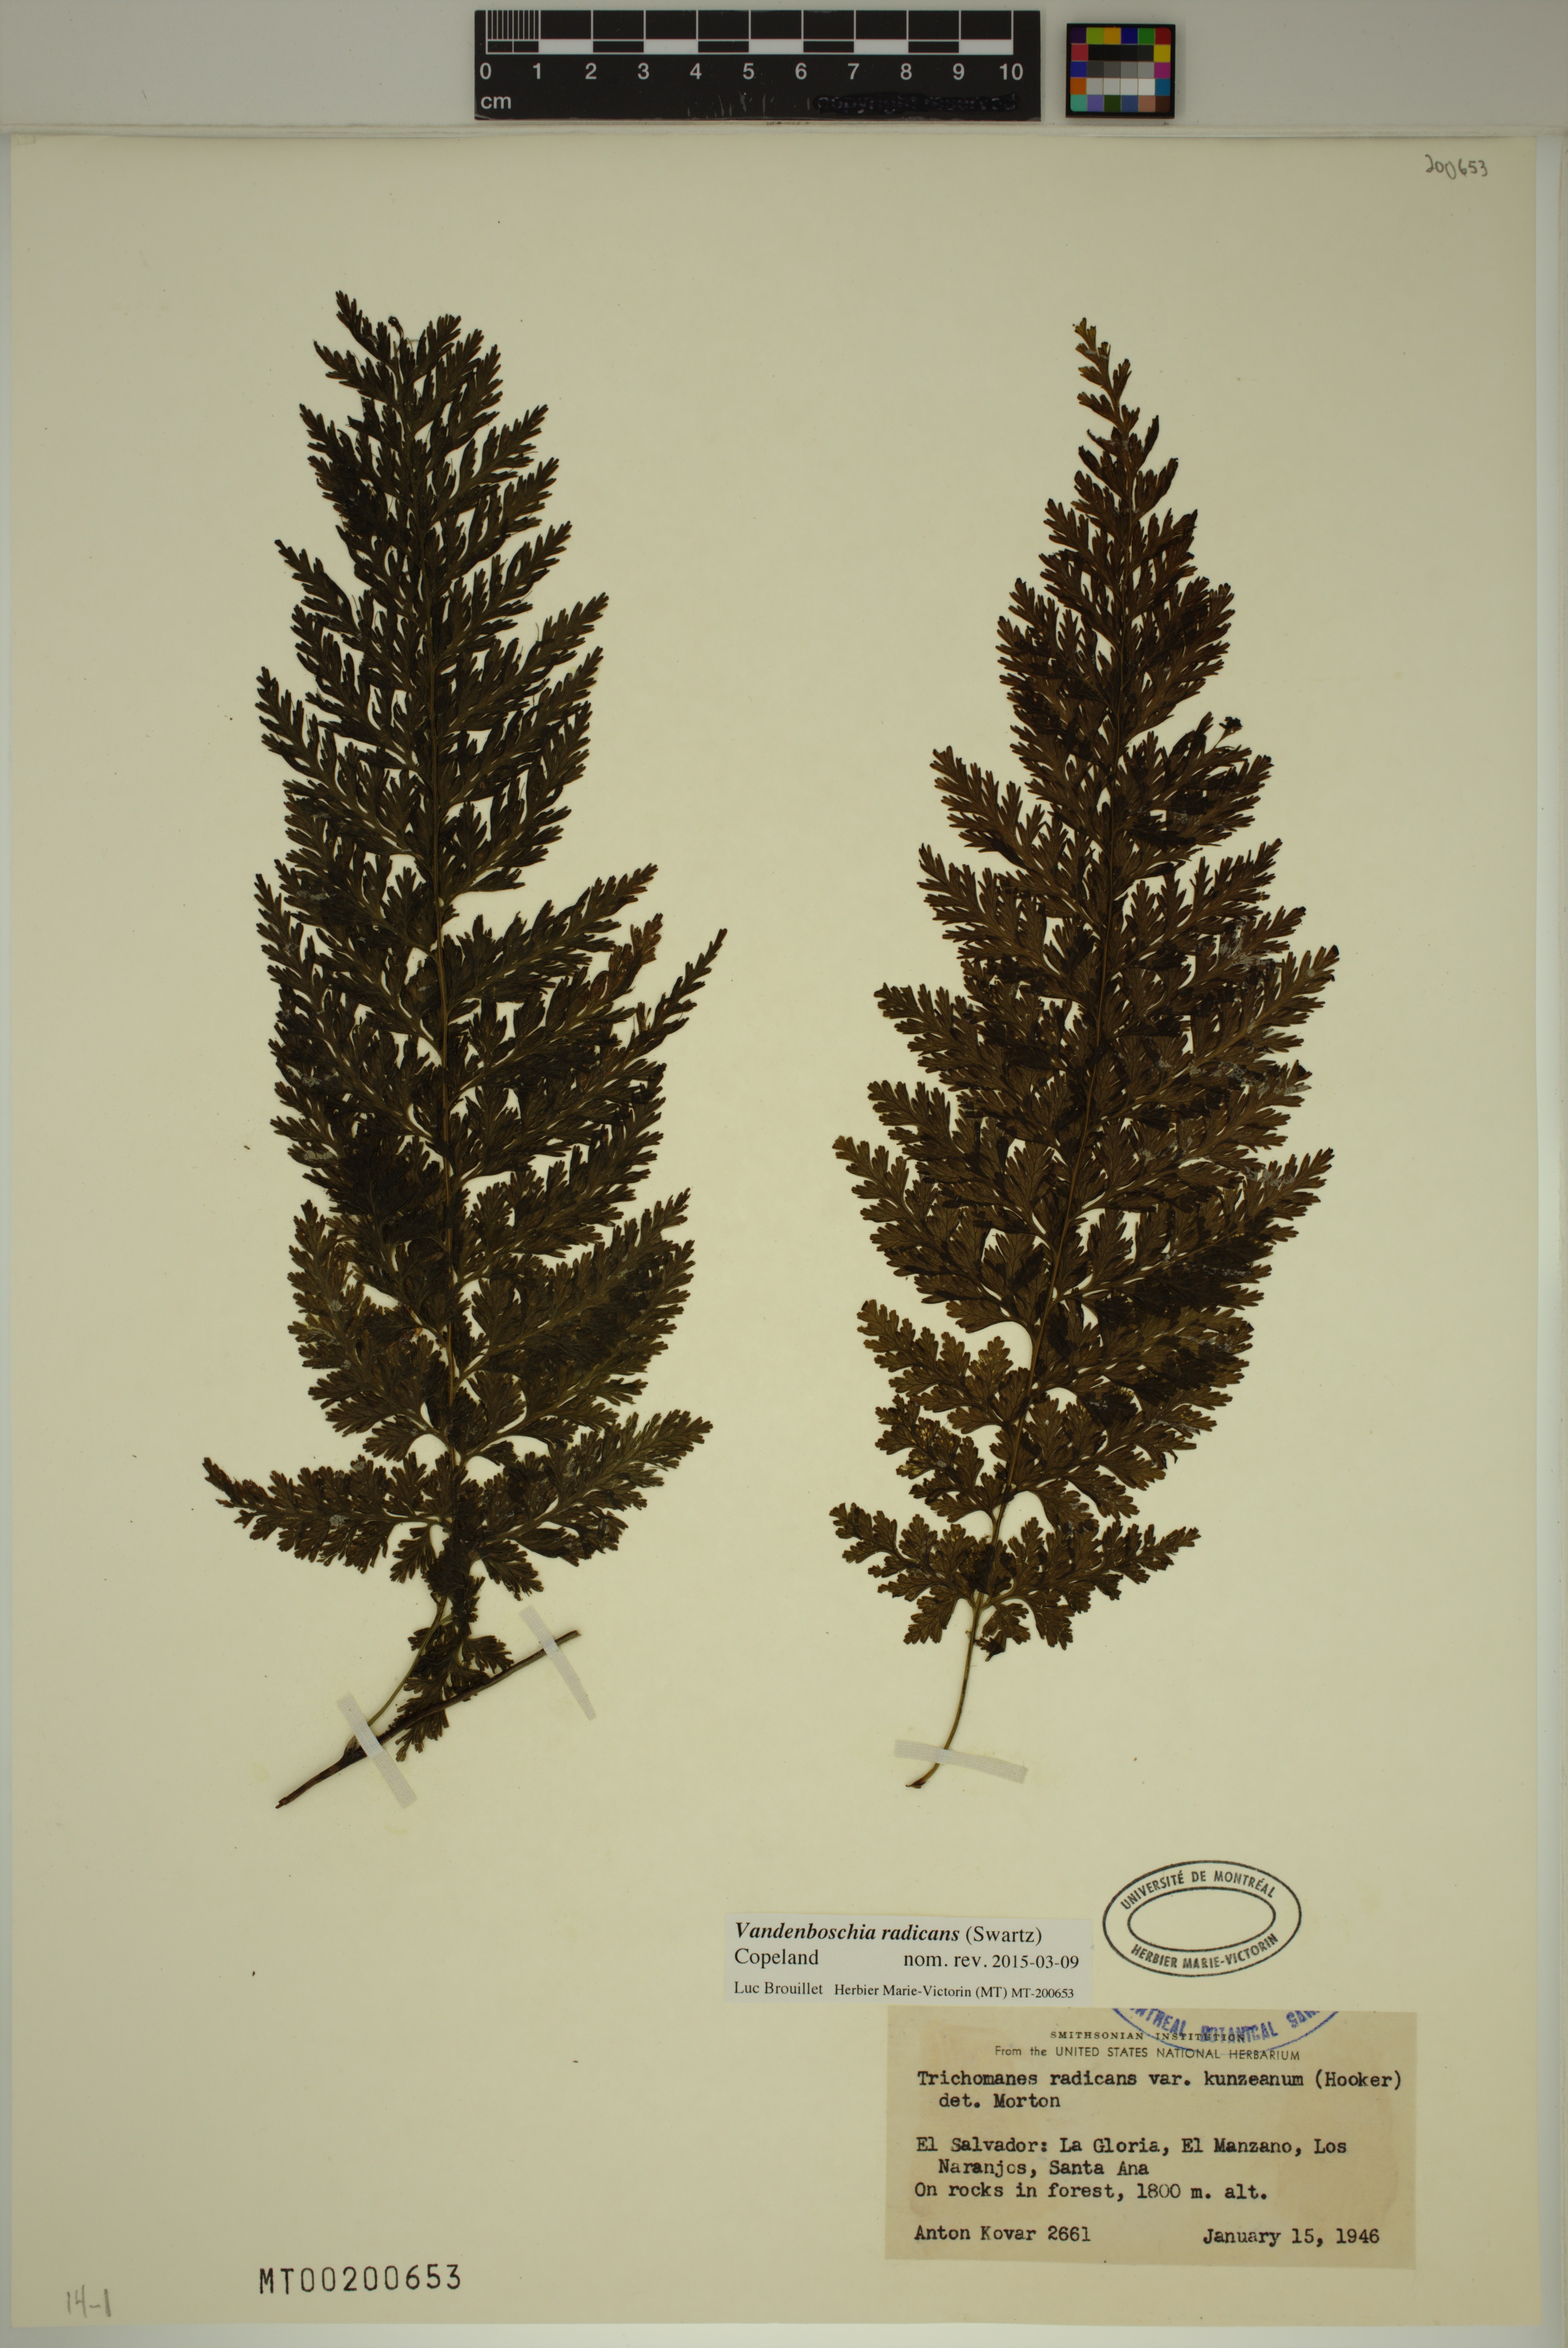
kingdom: Plantae
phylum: Tracheophyta
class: Polypodiopsida
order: Hymenophyllales
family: Hymenophyllaceae
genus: Vandenboschia
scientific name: Vandenboschia radicans
